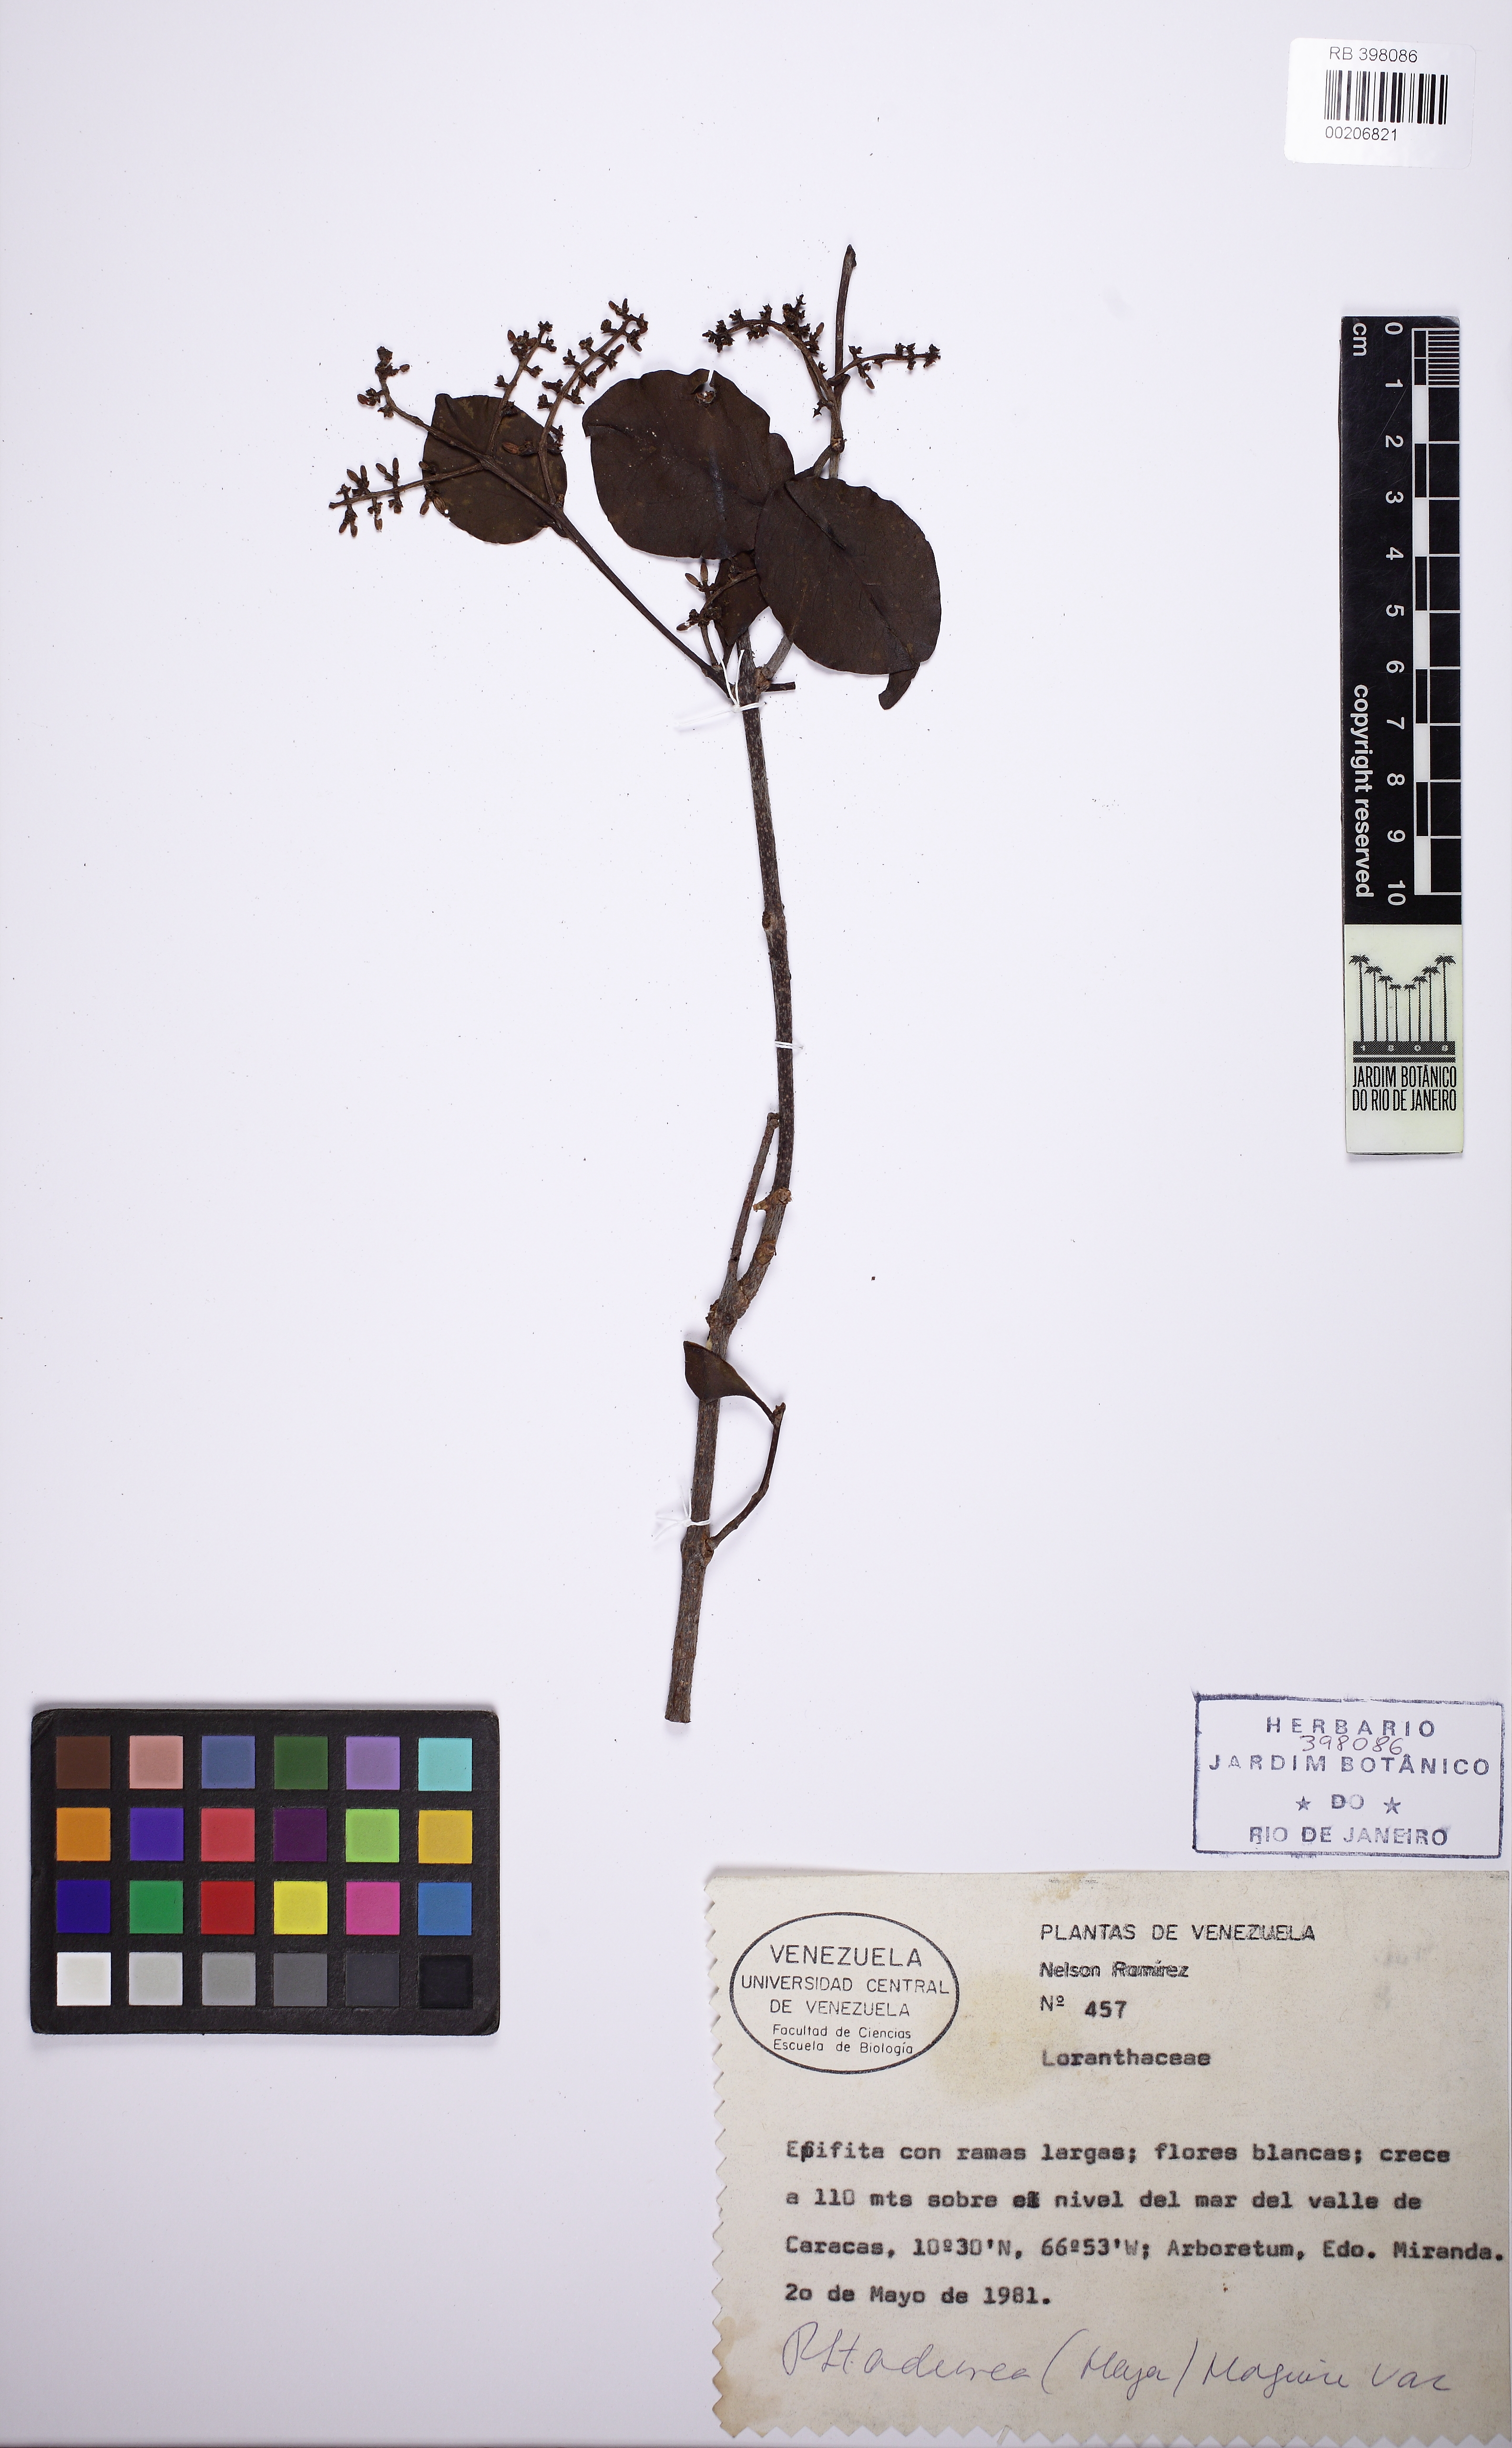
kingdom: Plantae
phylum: Tracheophyta
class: Magnoliopsida
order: Santalales
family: Loranthaceae
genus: Passovia
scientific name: Passovia pedunculata
